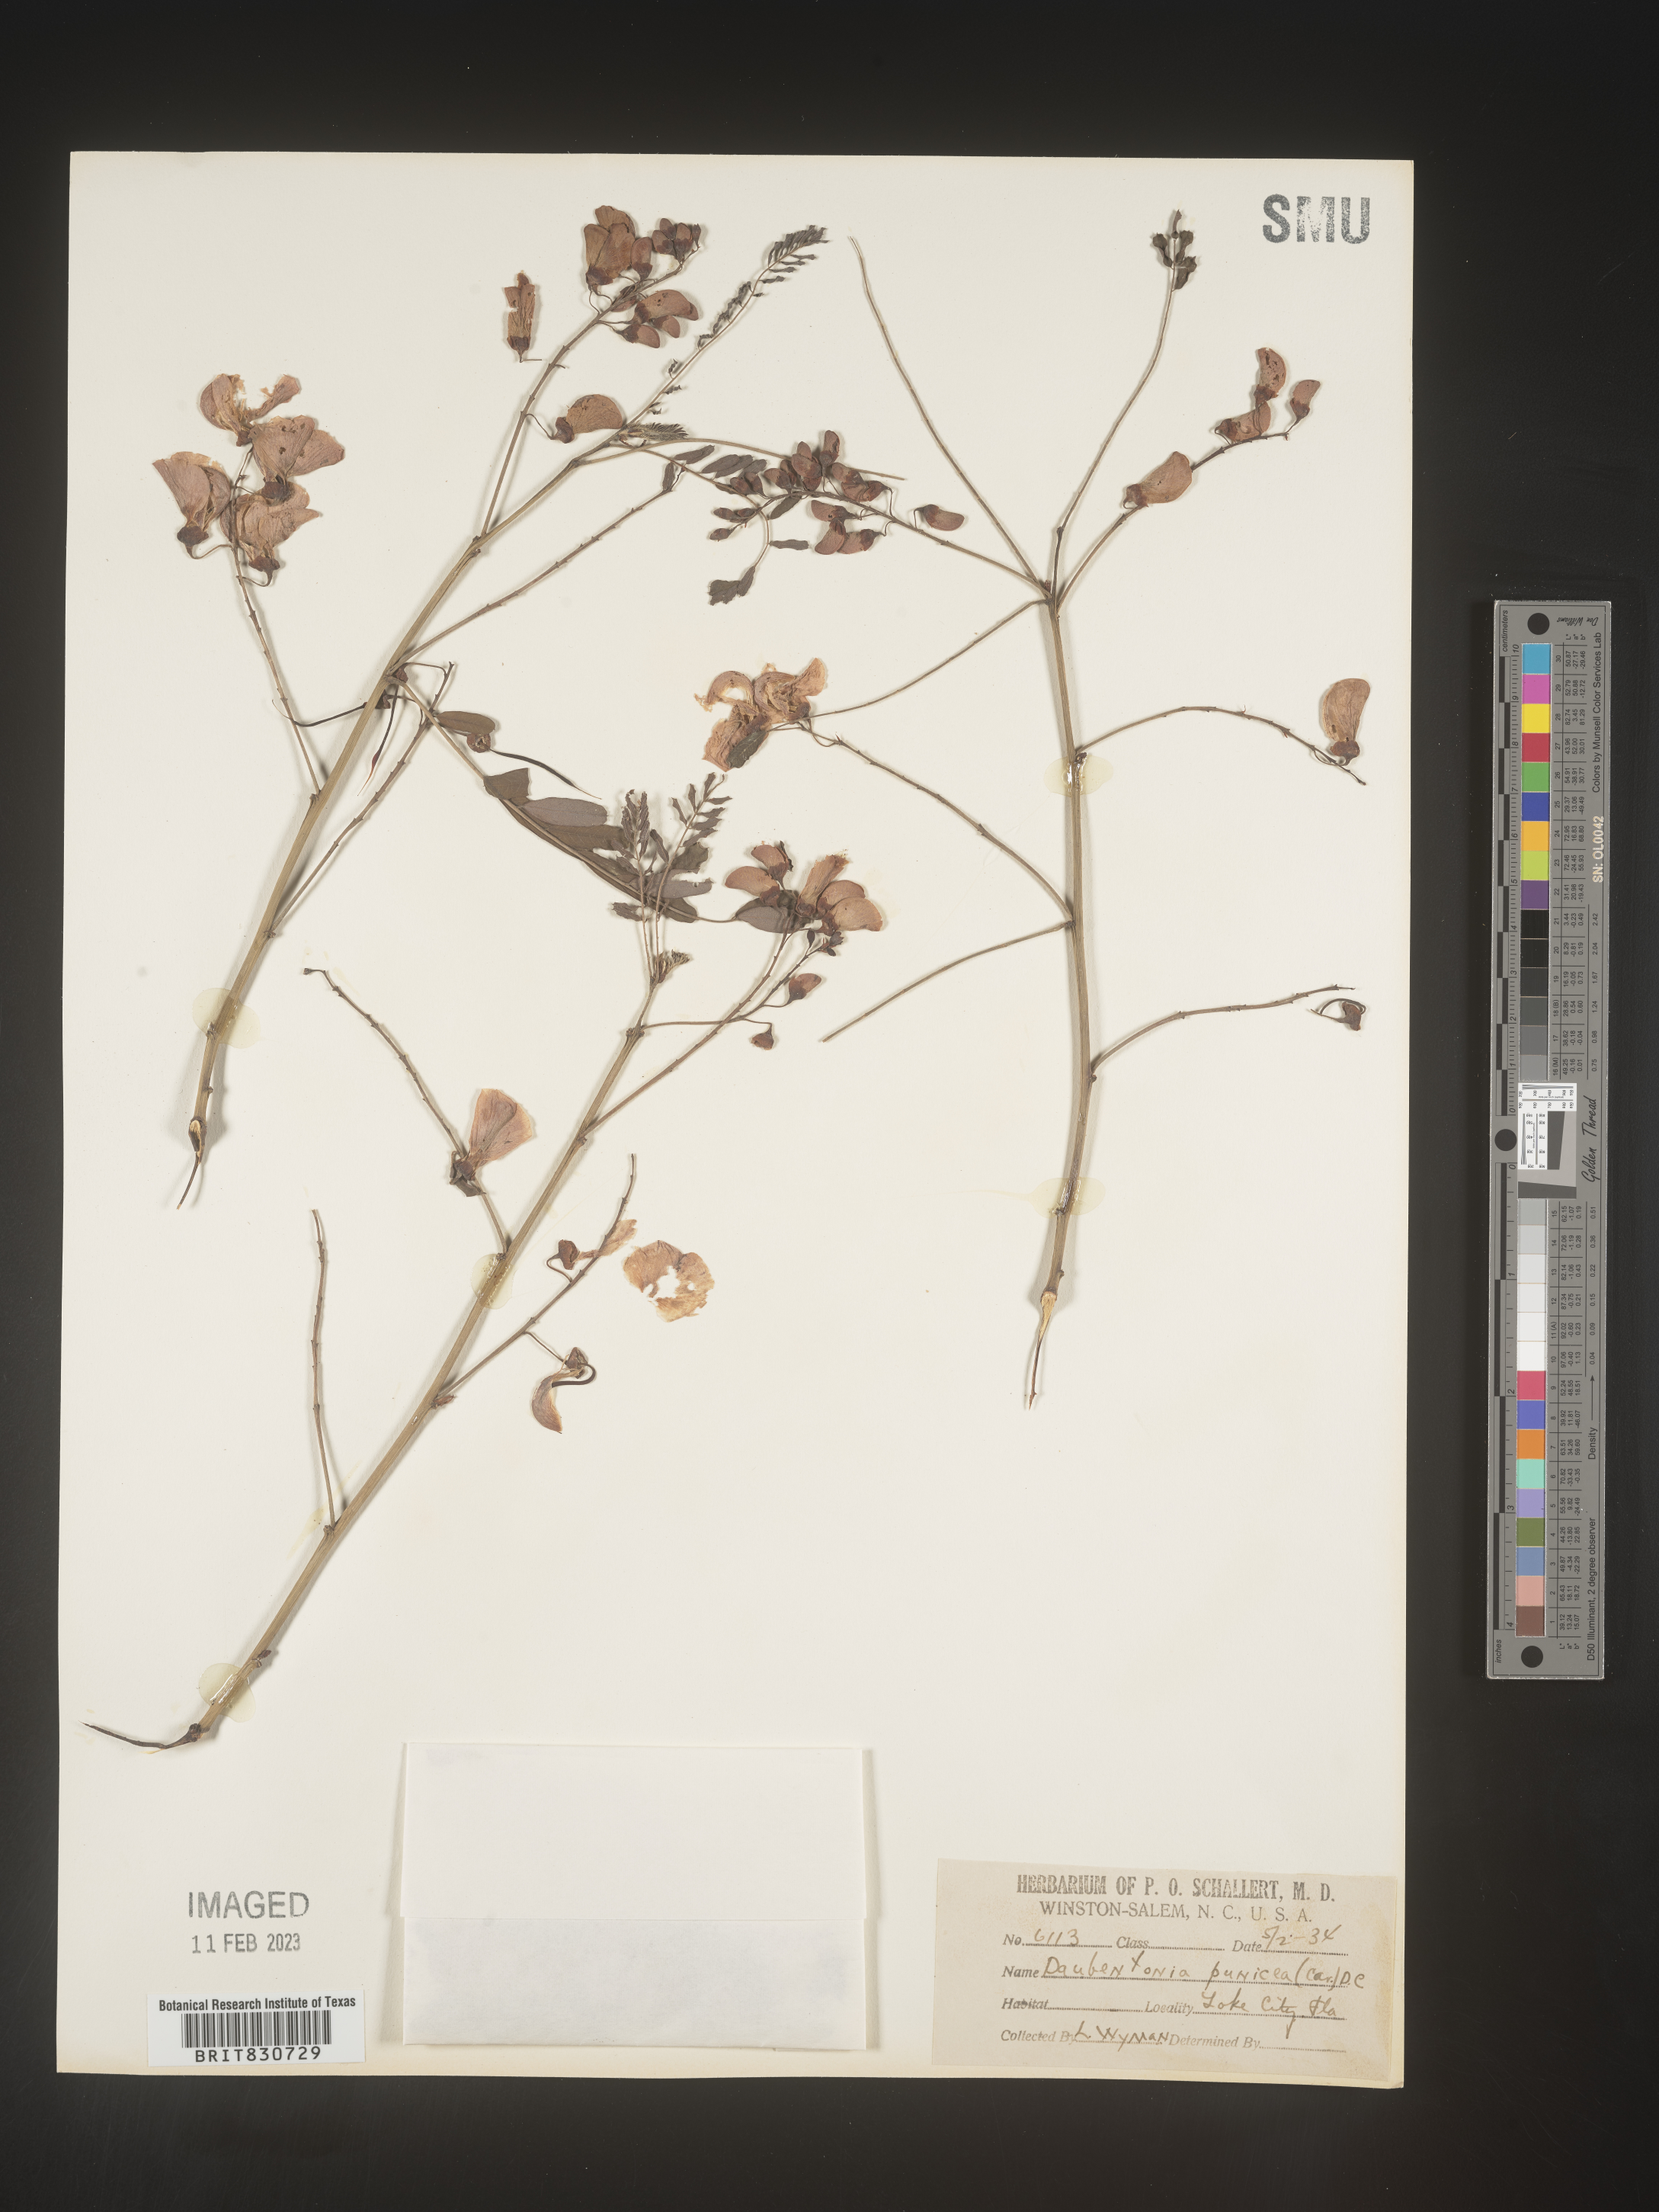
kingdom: Plantae
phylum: Tracheophyta
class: Magnoliopsida
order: Fabales
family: Fabaceae
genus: Sesbania
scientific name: Sesbania punicea
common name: Rattlebox
